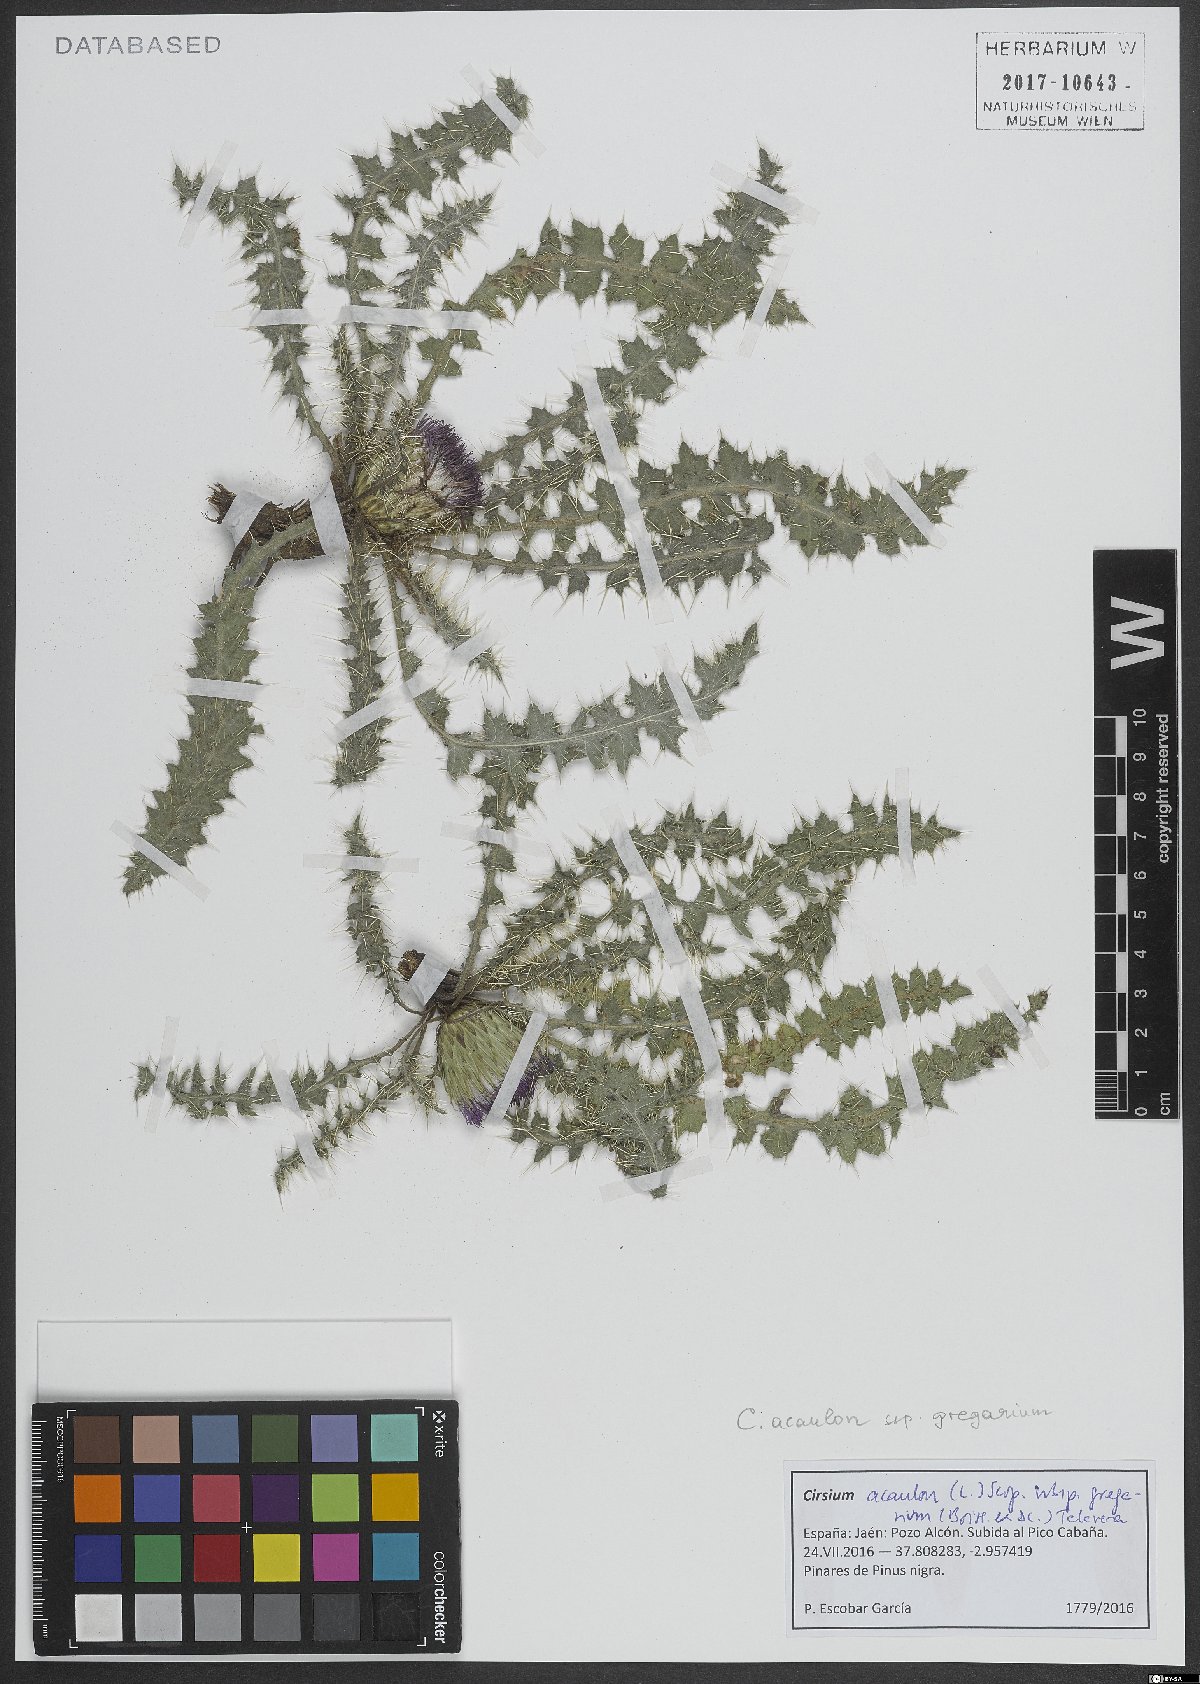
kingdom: Plantae
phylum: Tracheophyta
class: Magnoliopsida
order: Asterales
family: Asteraceae
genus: Cirsium
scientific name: Cirsium acaule
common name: Dwarf thistle
